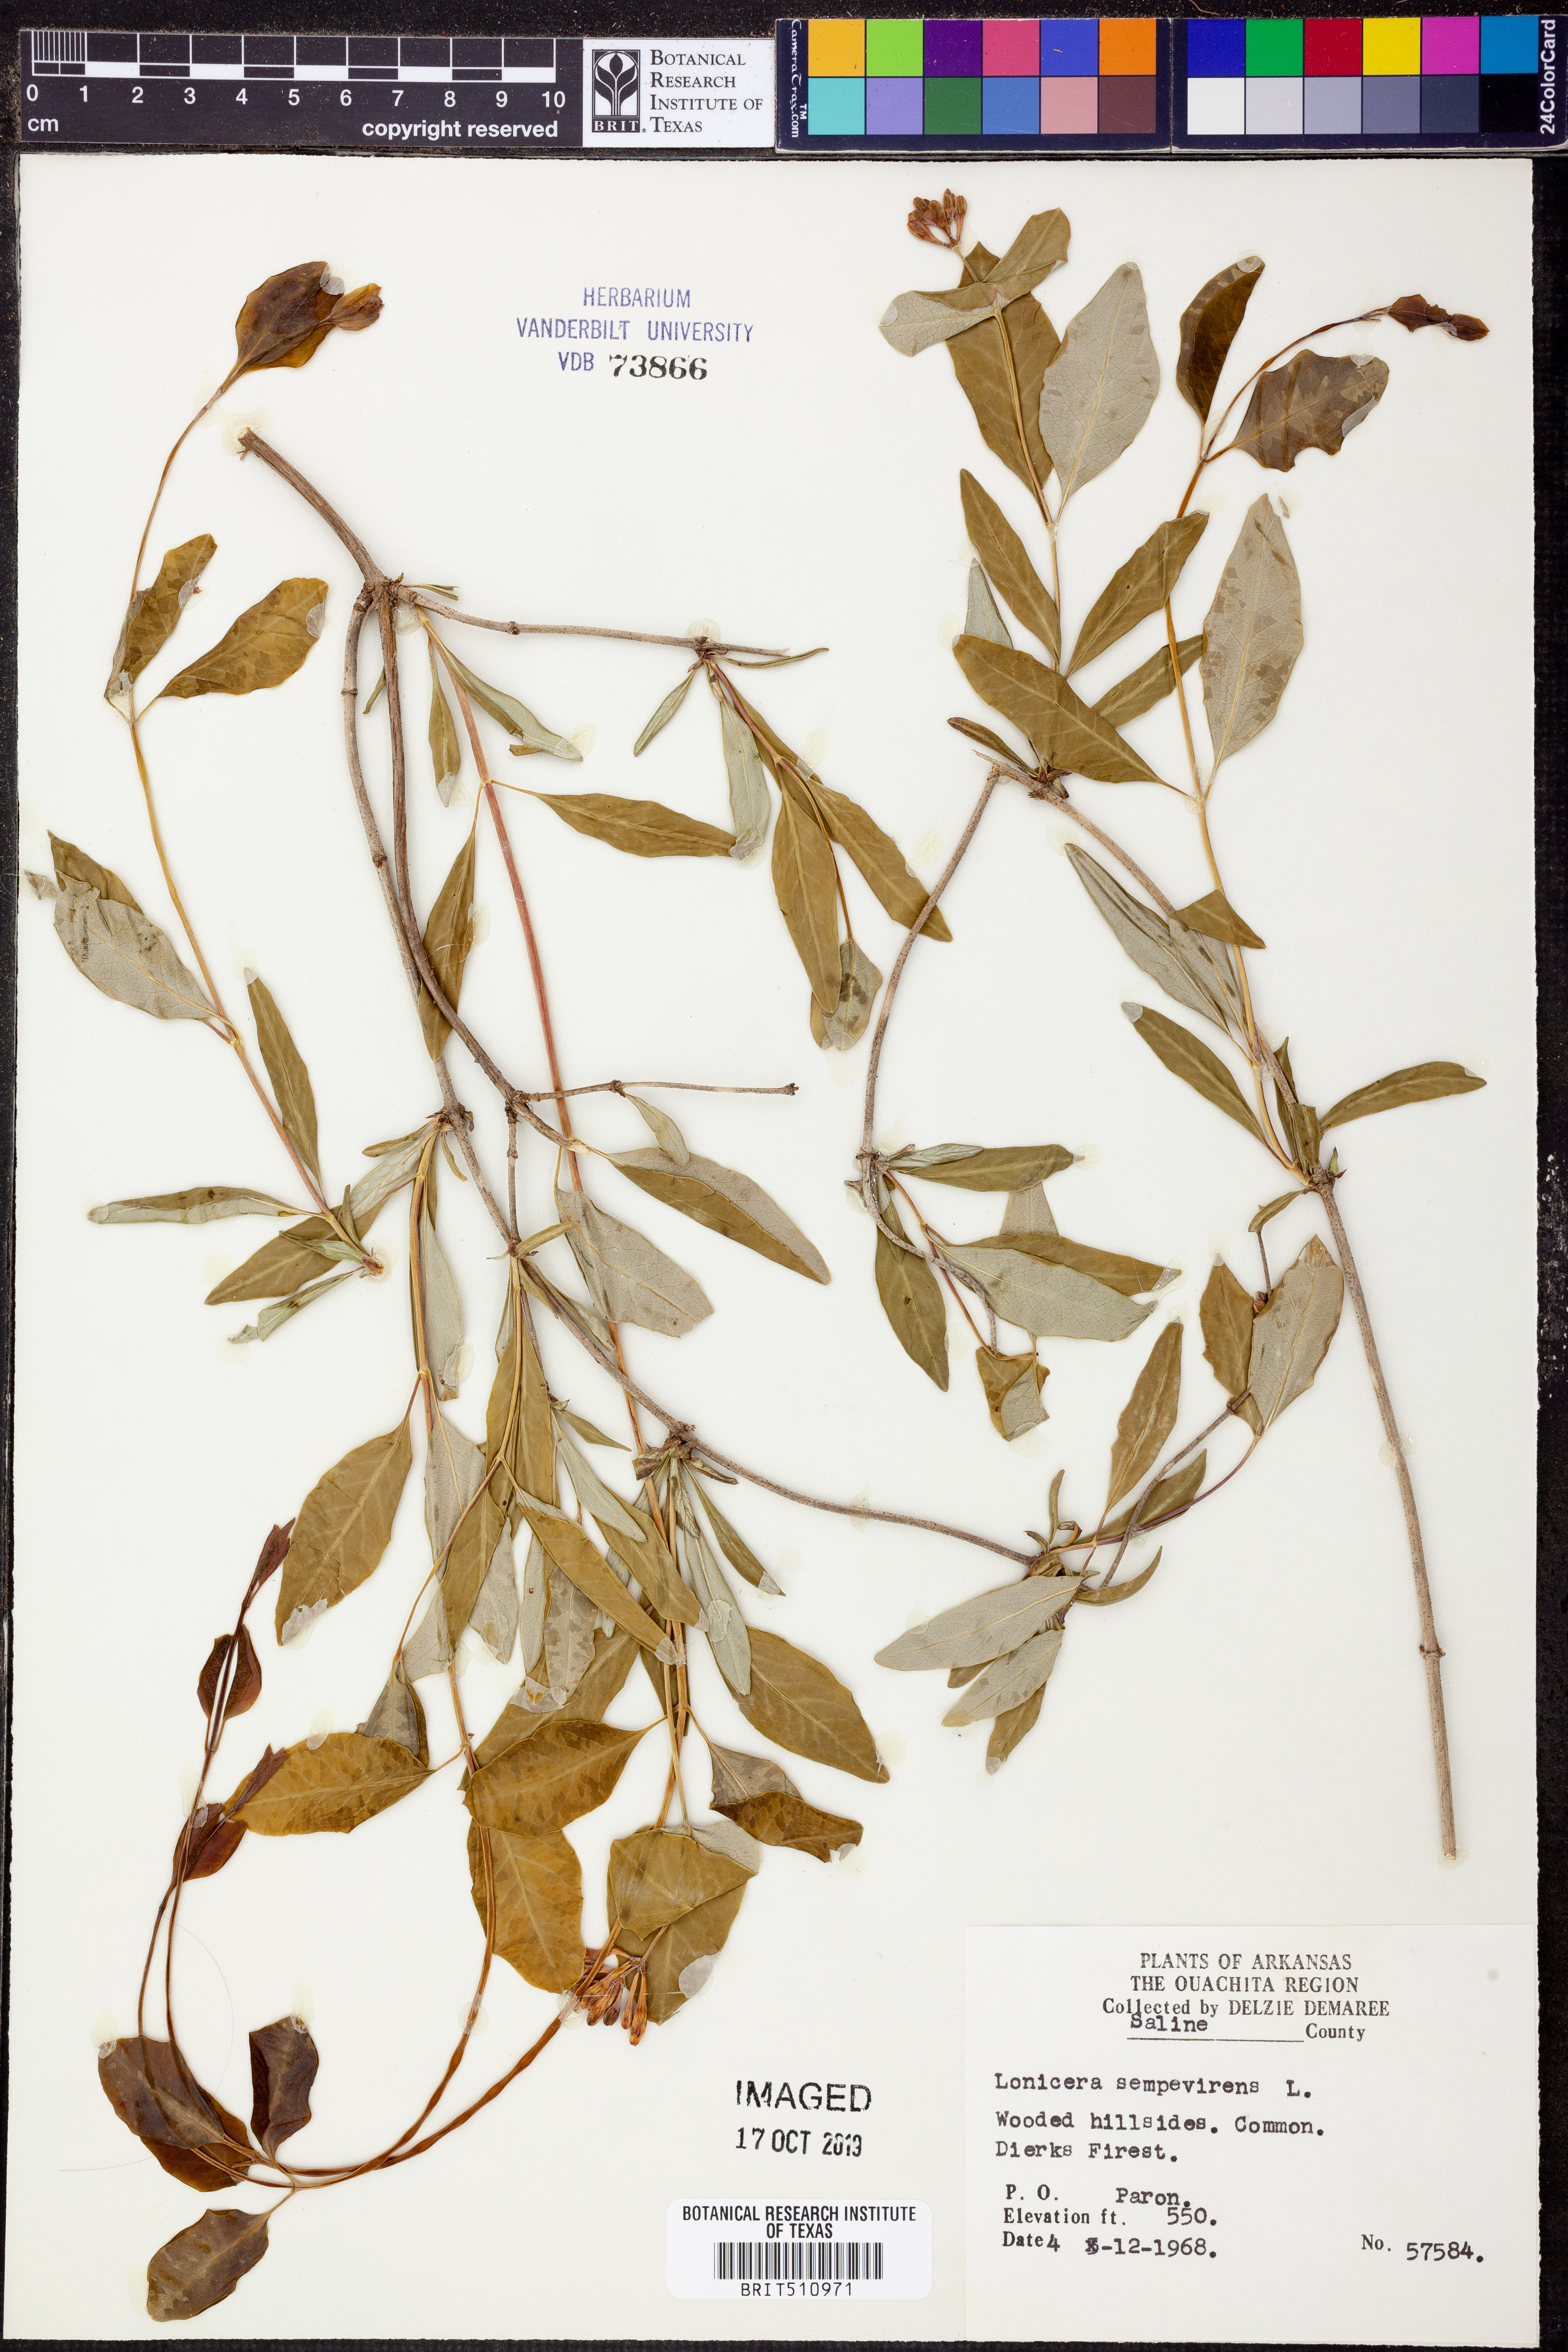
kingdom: Plantae
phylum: Tracheophyta
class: Magnoliopsida
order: Dipsacales
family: Caprifoliaceae
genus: Lonicera
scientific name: Lonicera sempervirens
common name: Coral honeysuckle
